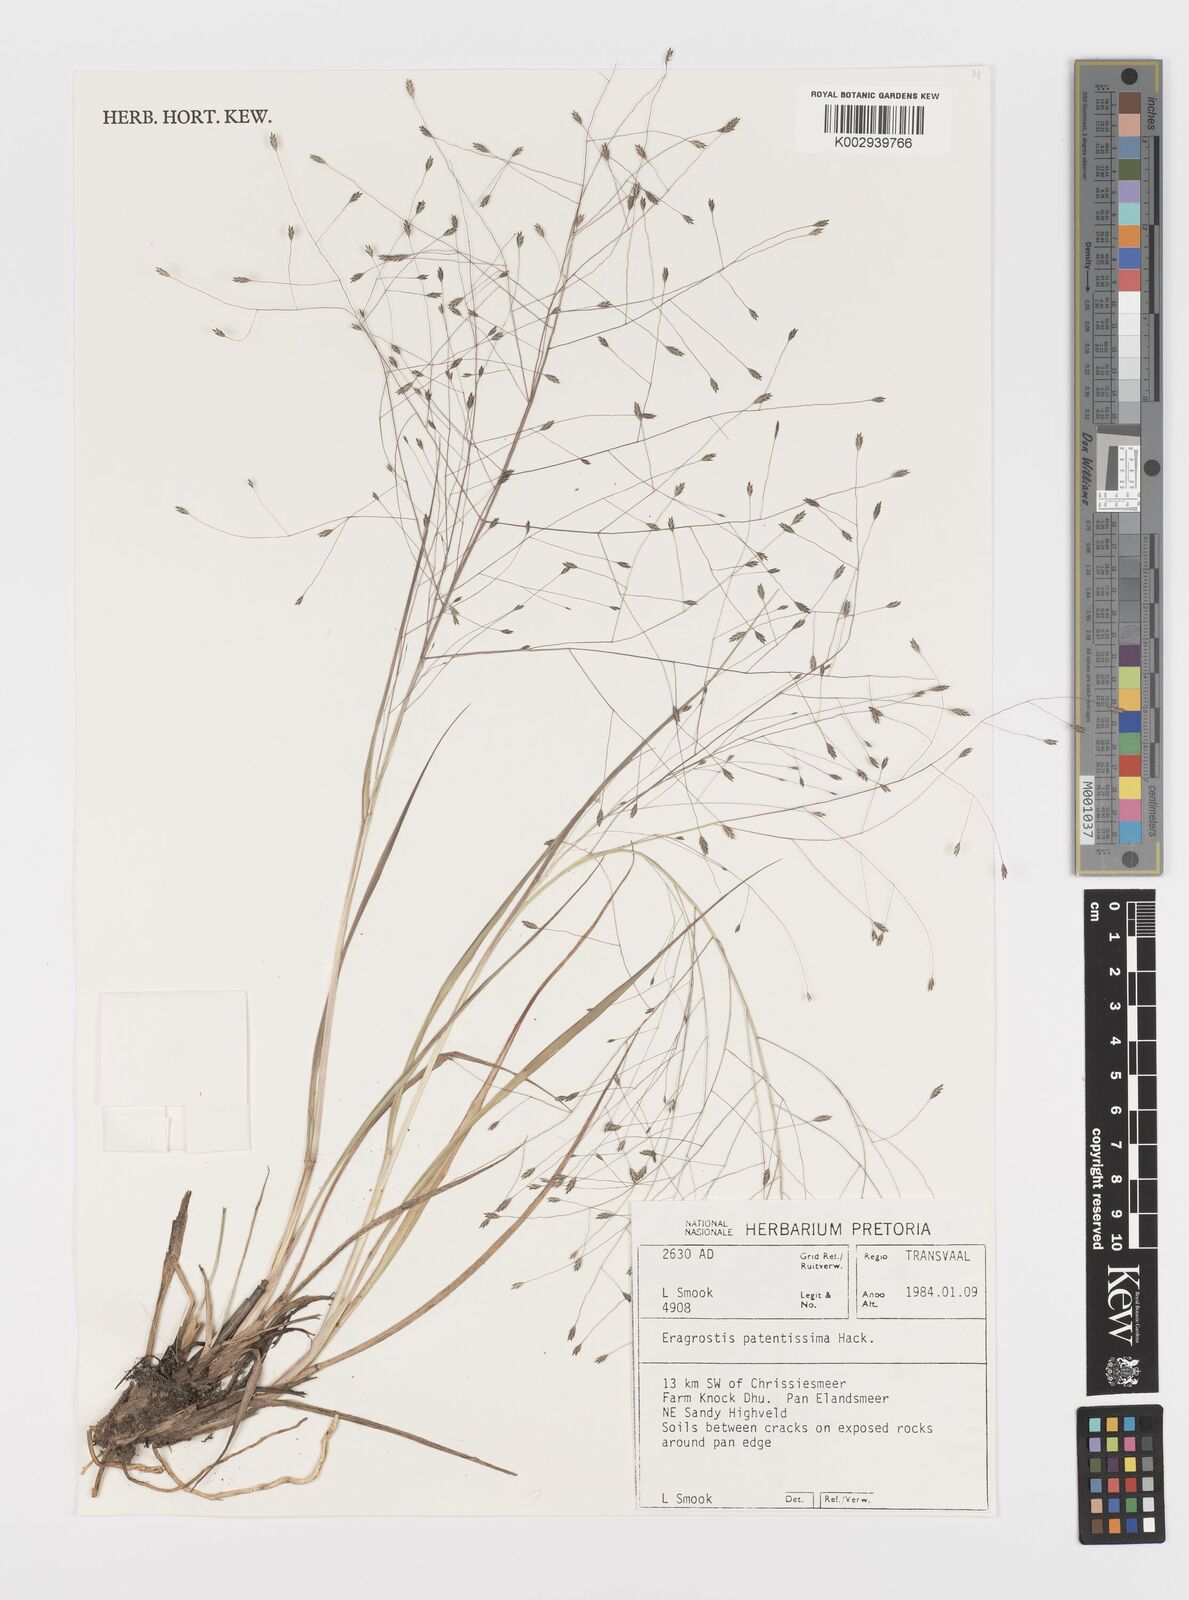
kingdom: Plantae
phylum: Tracheophyta
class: Liliopsida
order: Poales
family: Poaceae
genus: Eragrostis
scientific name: Eragrostis patentissima
